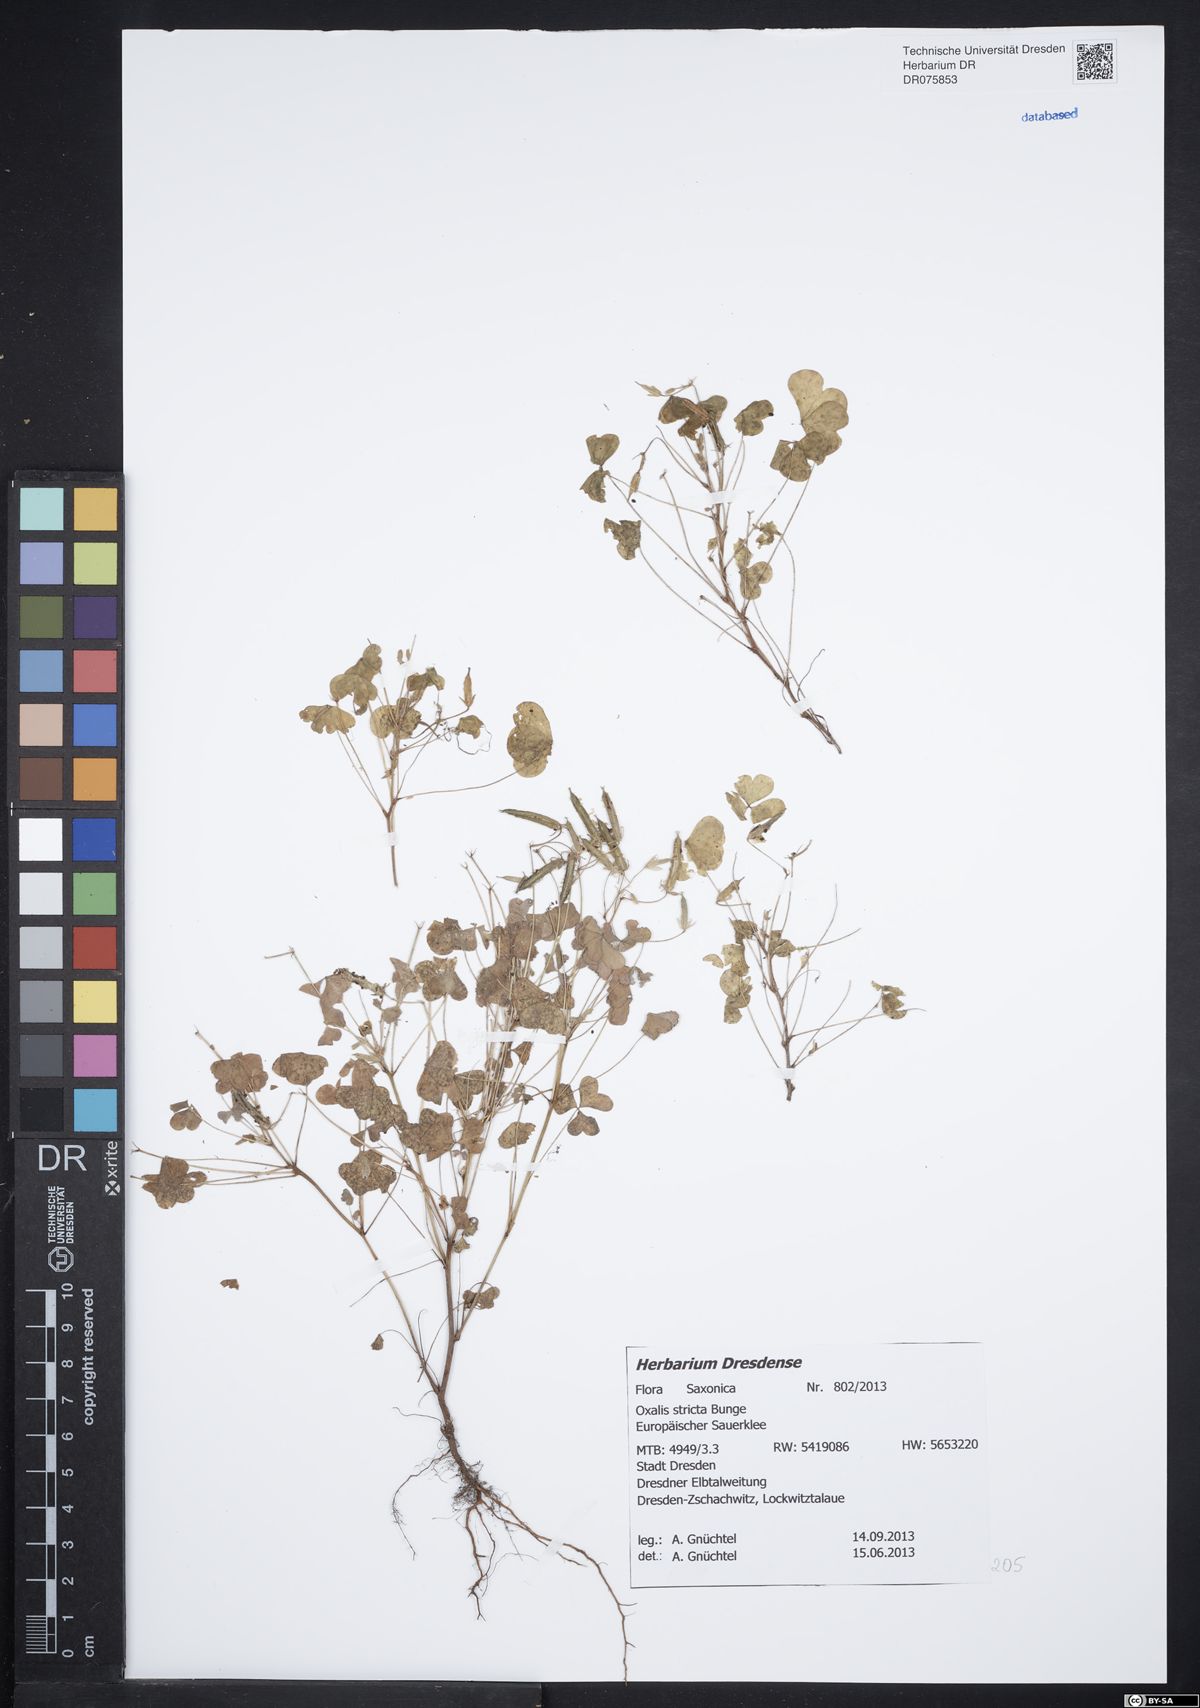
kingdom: Plantae
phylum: Tracheophyta
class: Magnoliopsida
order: Oxalidales
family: Oxalidaceae
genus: Oxalis
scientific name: Oxalis stricta
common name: Upright yellow-sorrel
